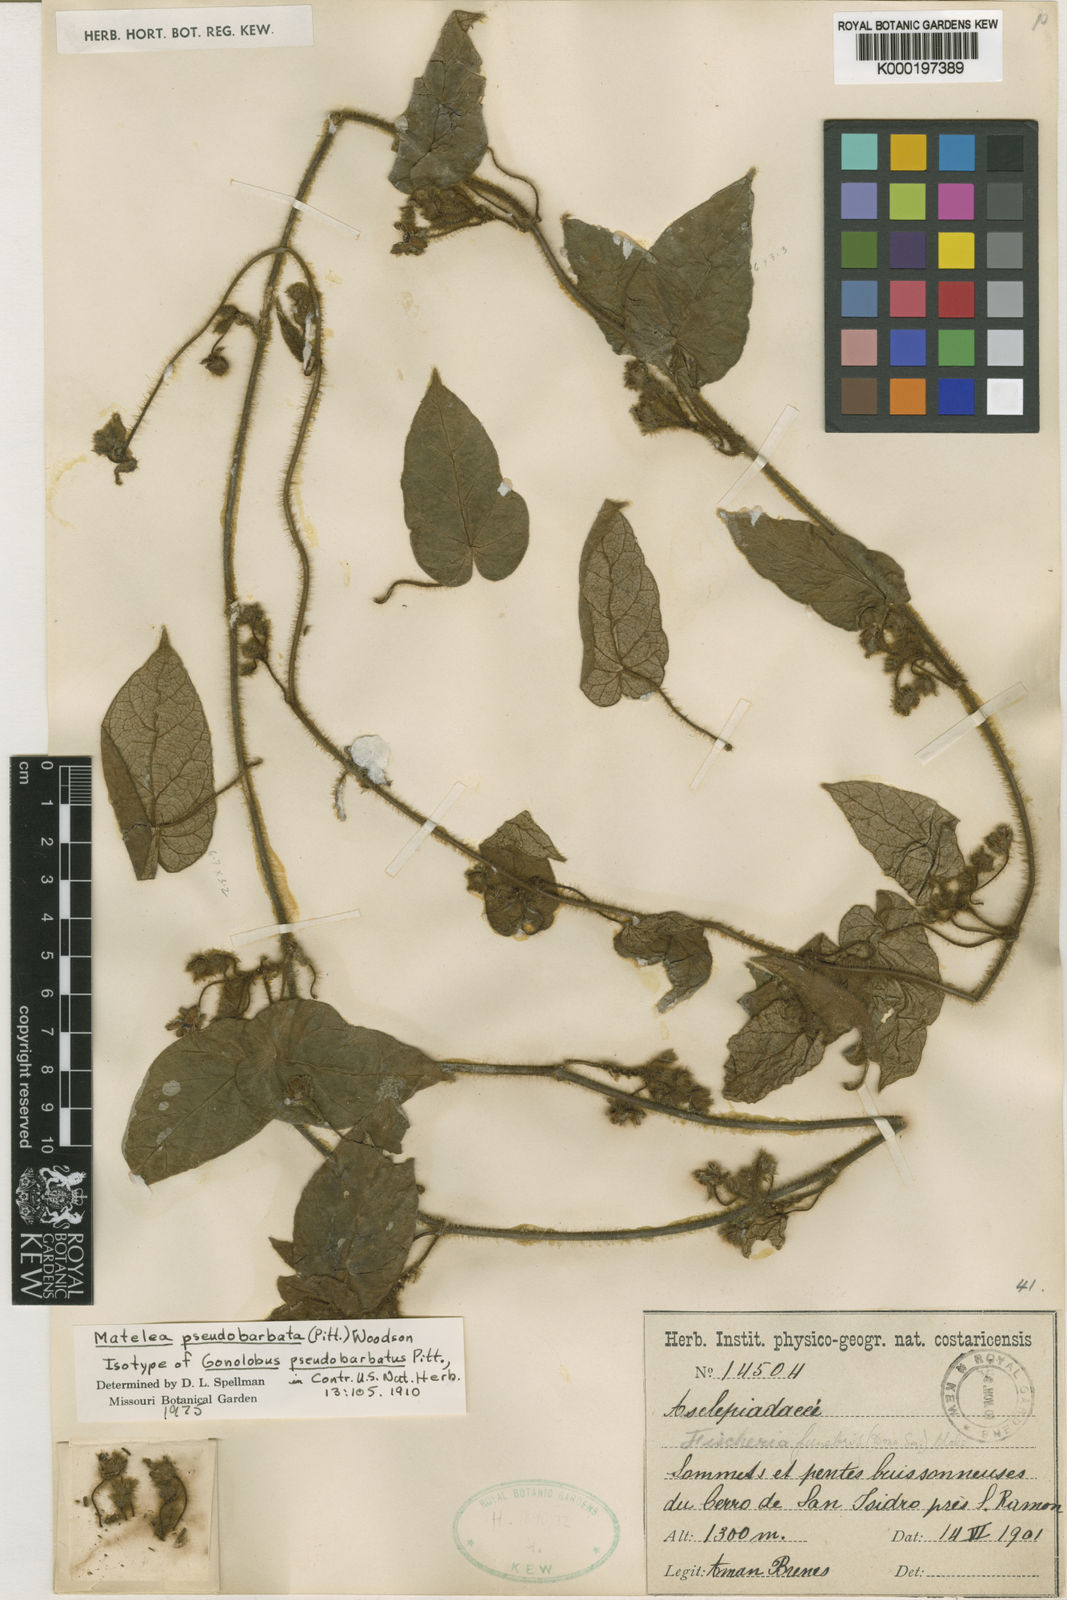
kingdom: Plantae
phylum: Tracheophyta
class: Magnoliopsida
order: Gentianales
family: Apocynaceae
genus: Matelea
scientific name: Matelea pseudobarbata
